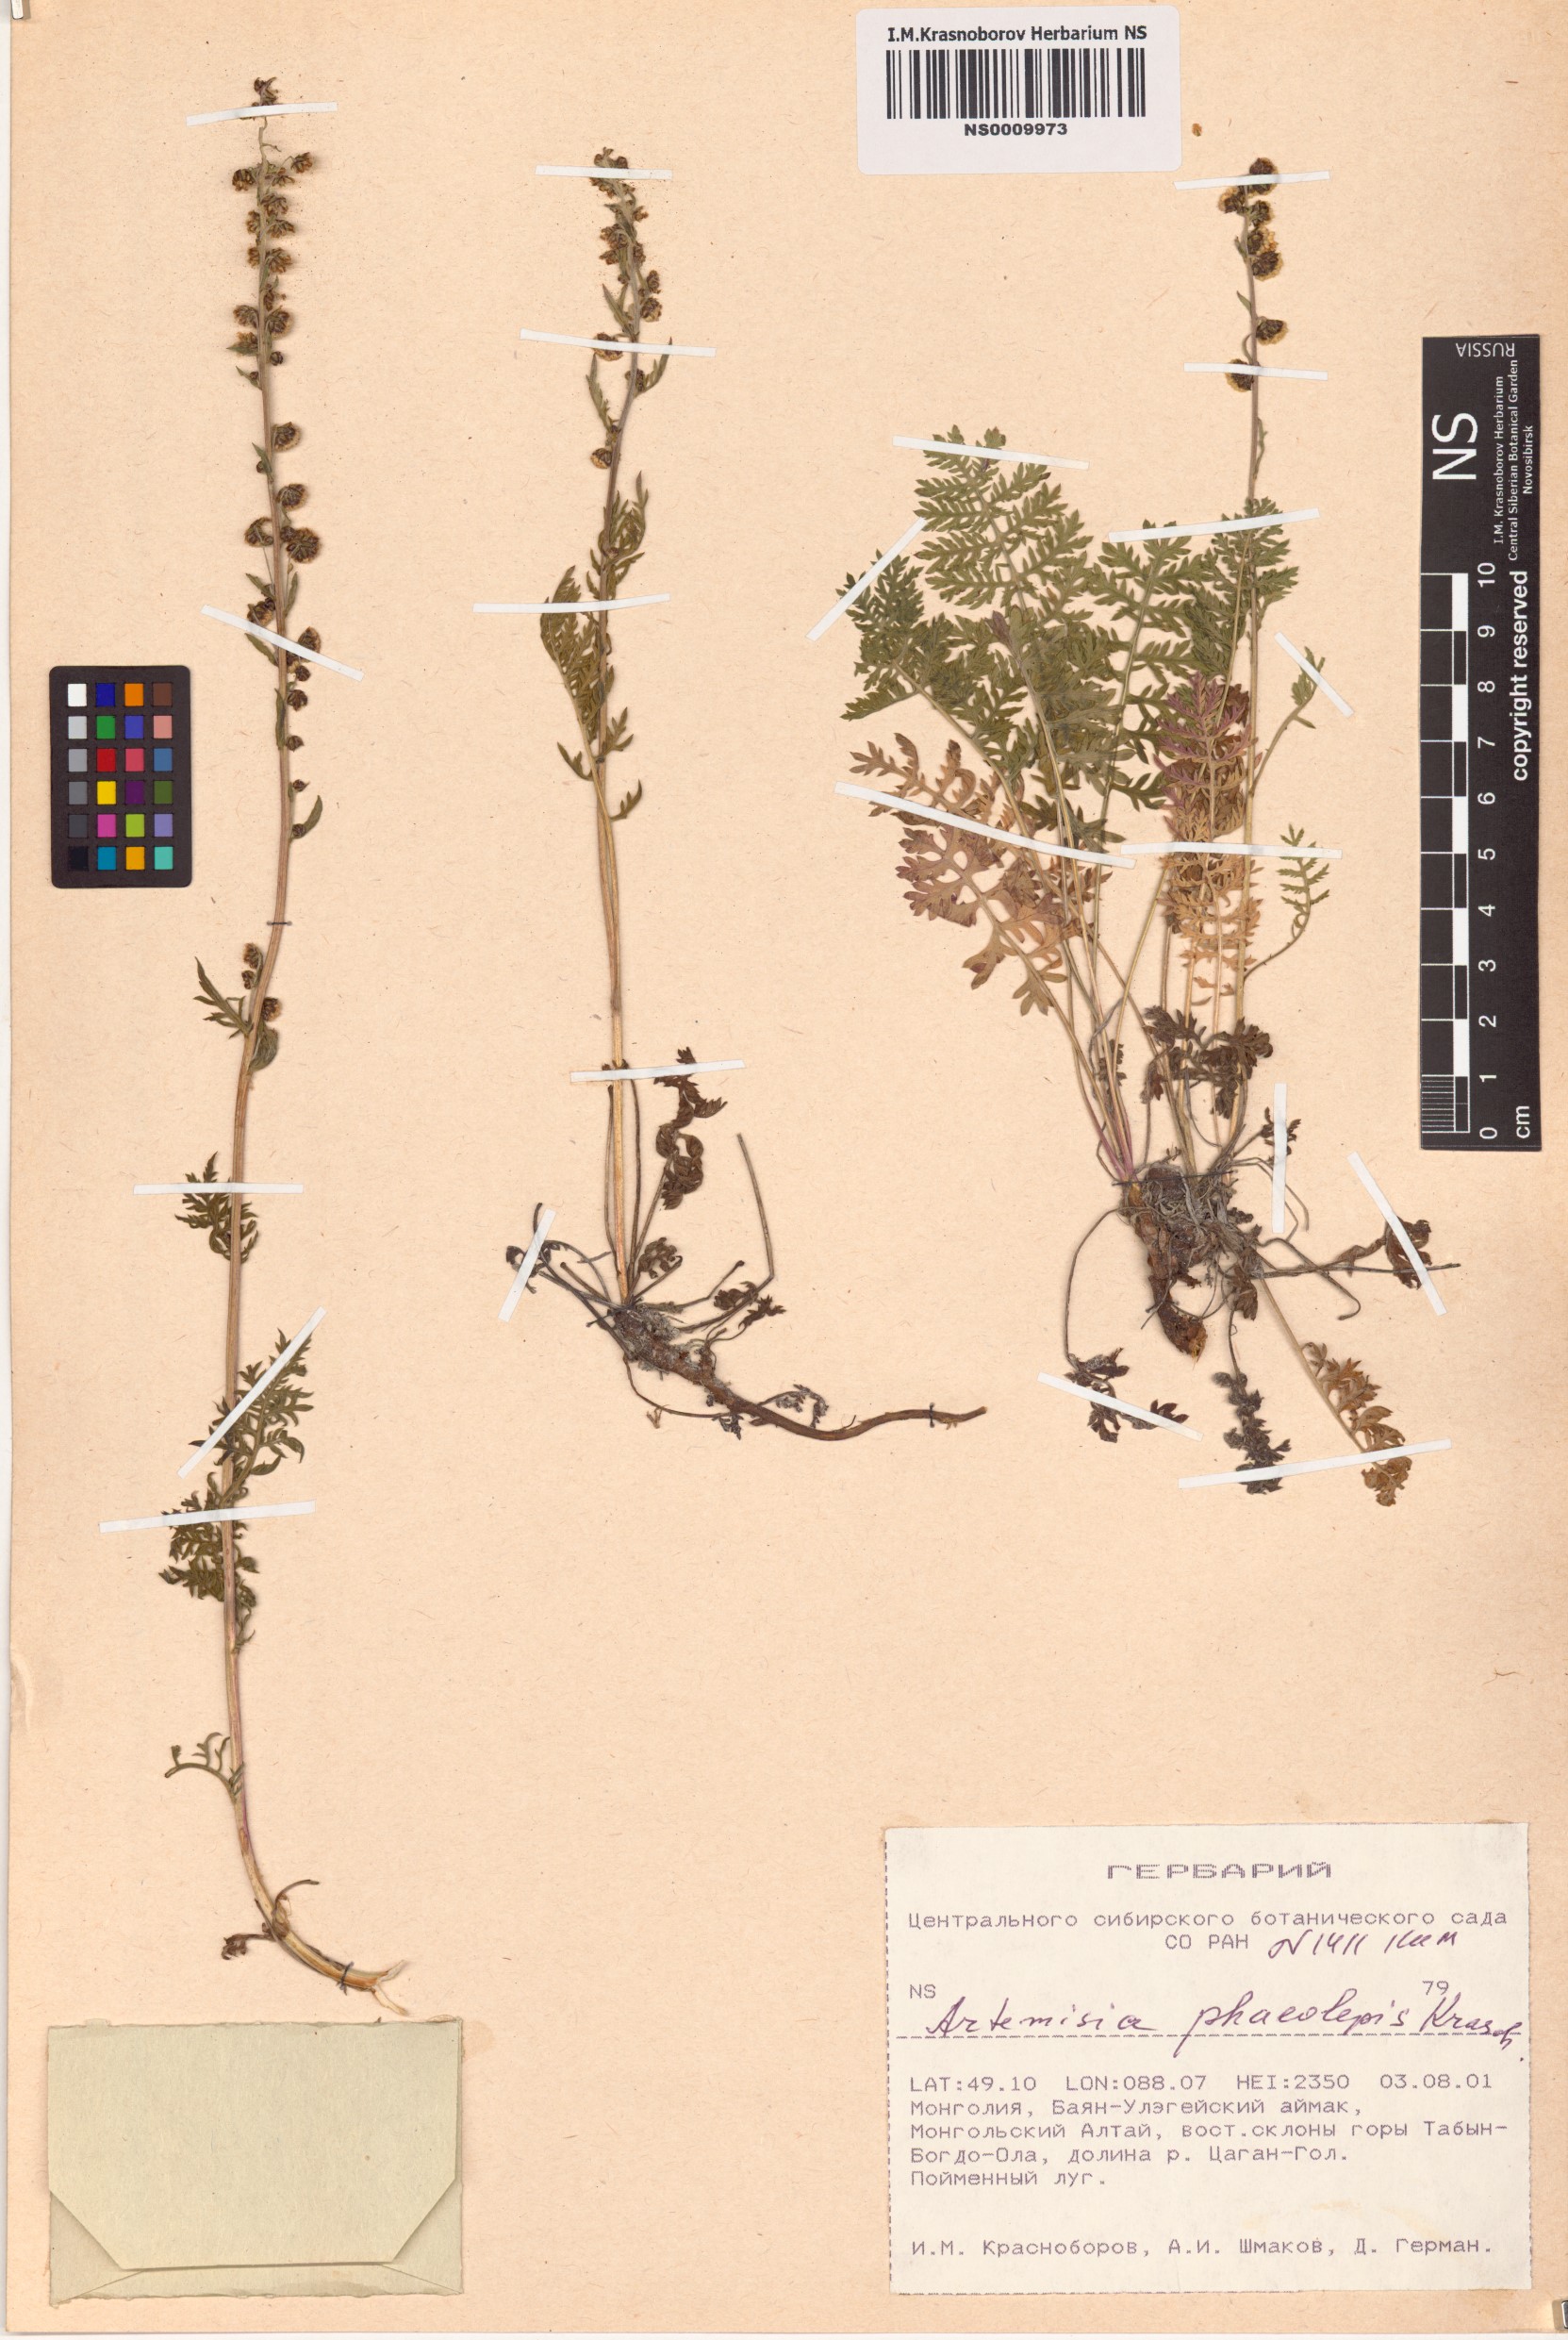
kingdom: Plantae
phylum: Tracheophyta
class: Magnoliopsida
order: Asterales
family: Asteraceae
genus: Artemisia
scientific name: Artemisia phaeolepis
